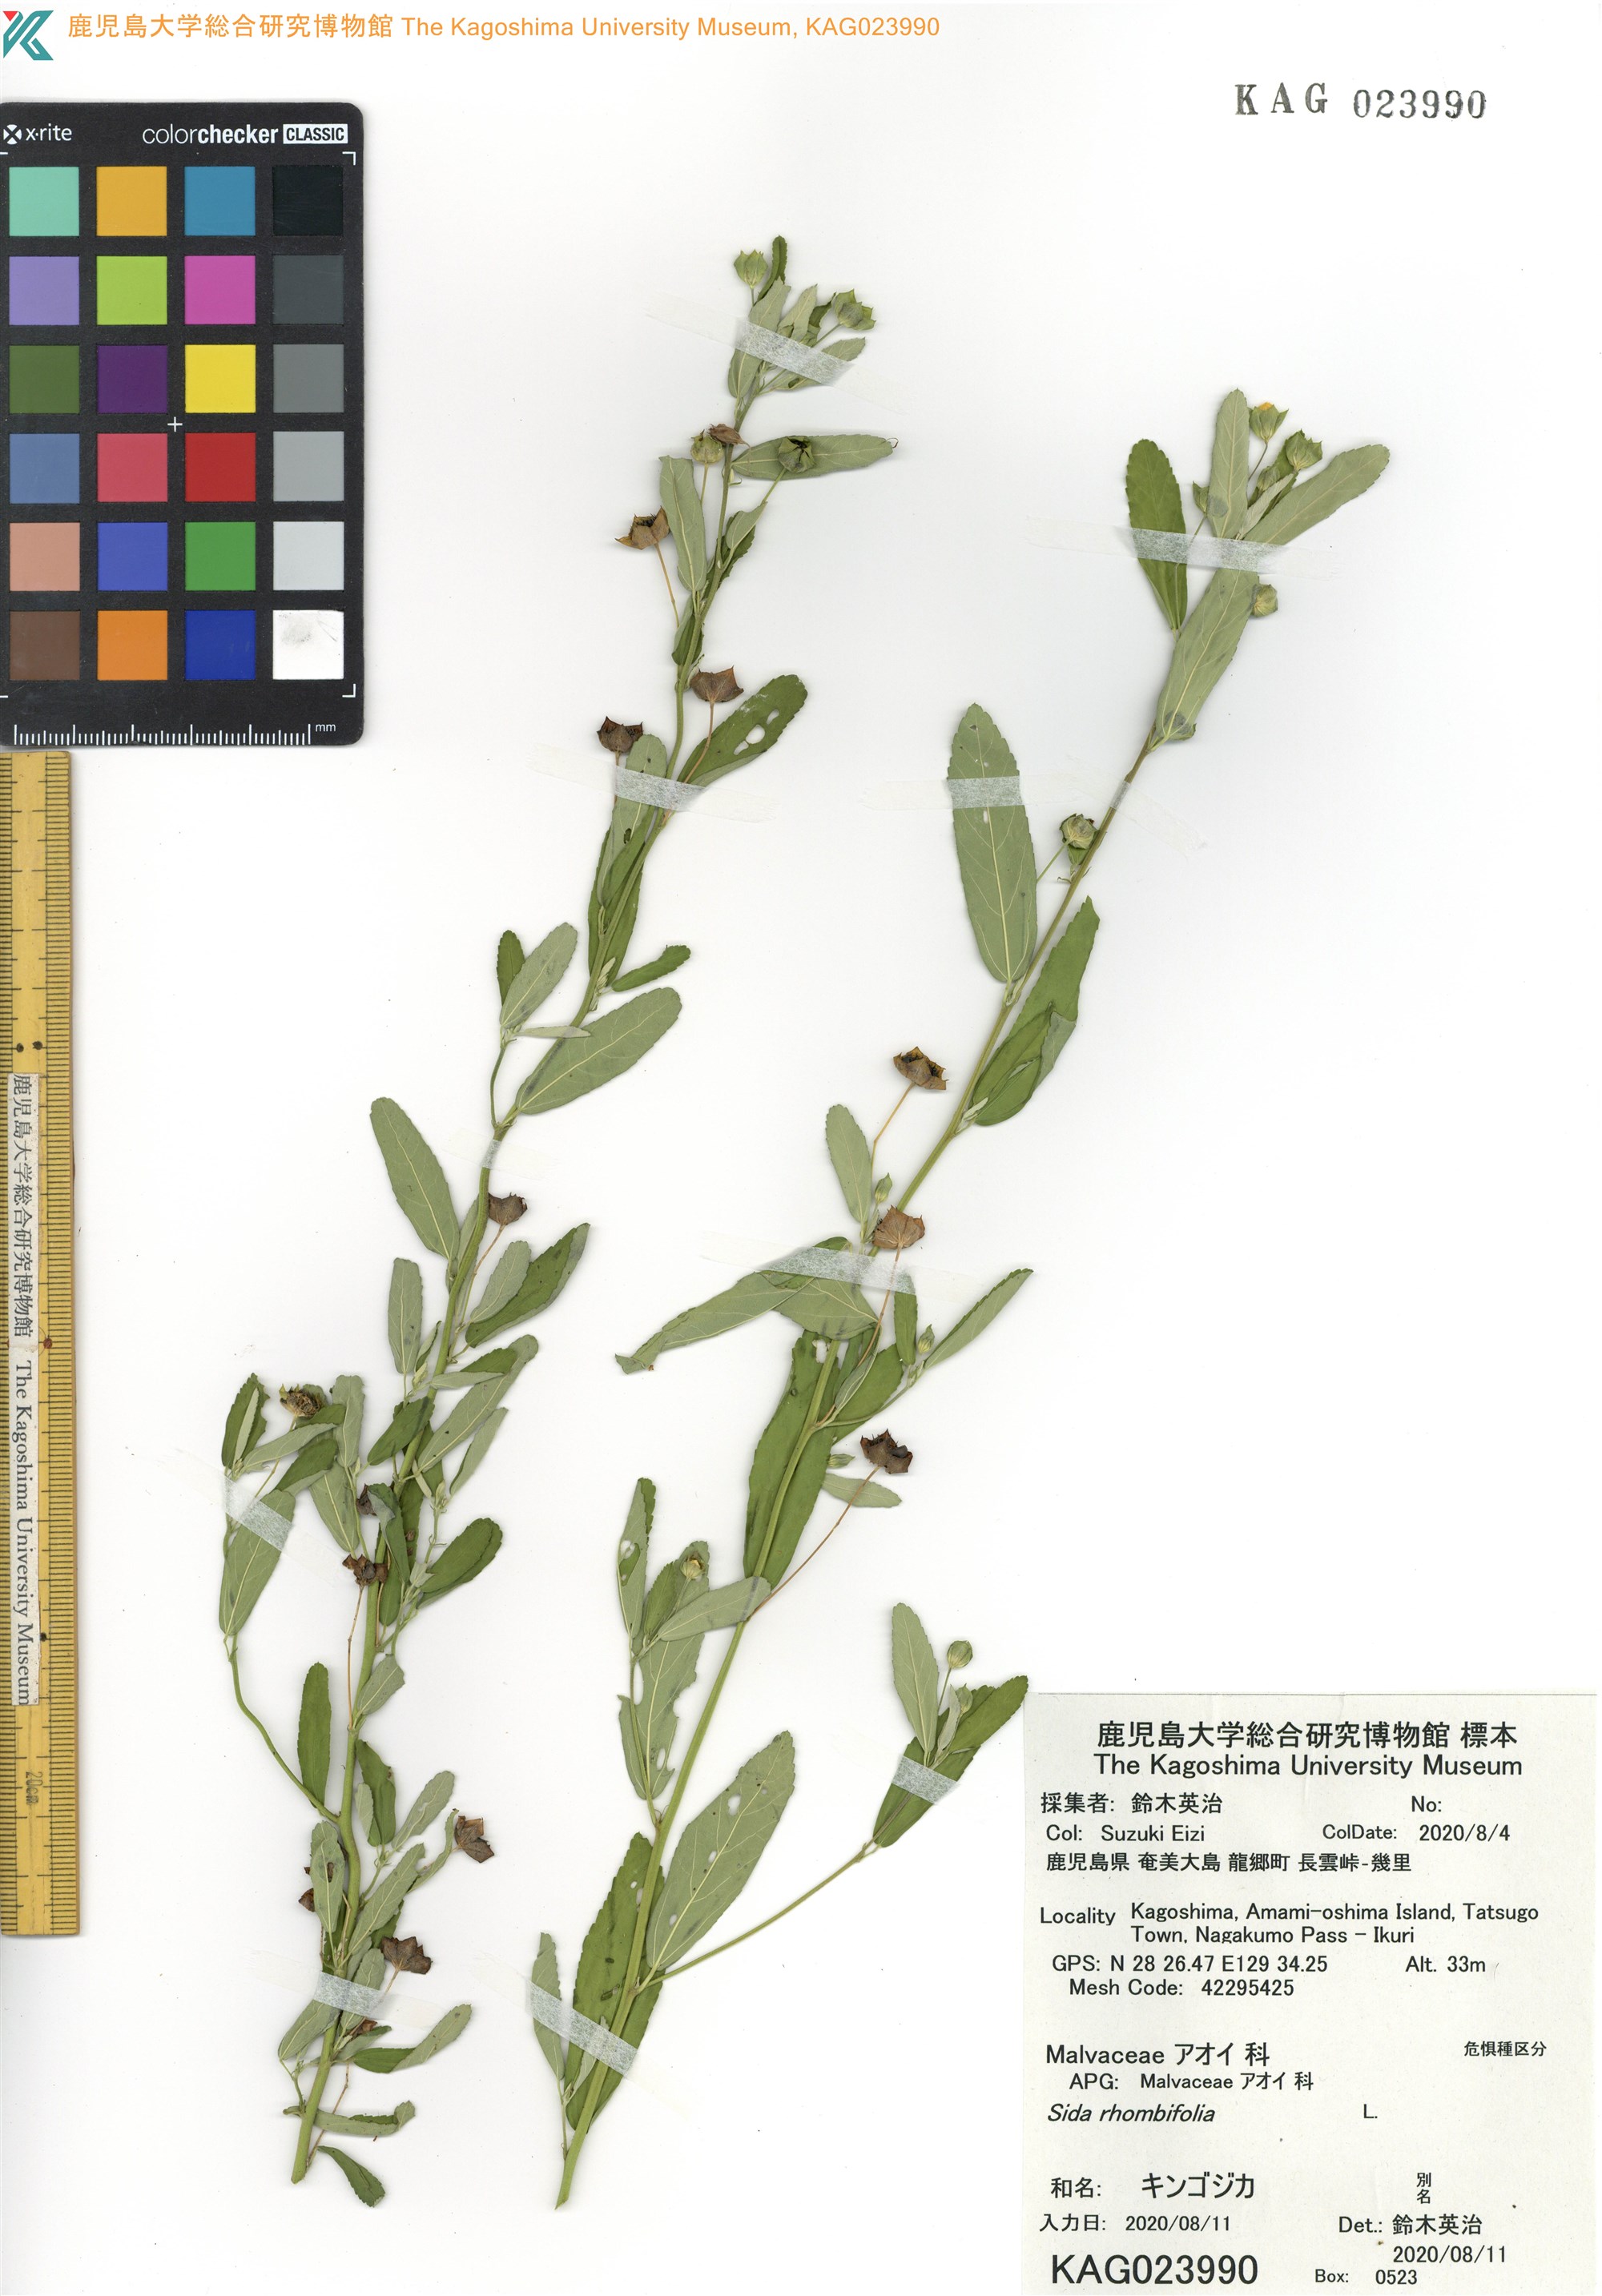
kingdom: Plantae
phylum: Tracheophyta
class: Magnoliopsida
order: Malvales
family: Malvaceae
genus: Sida
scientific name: Sida rhombifolia
